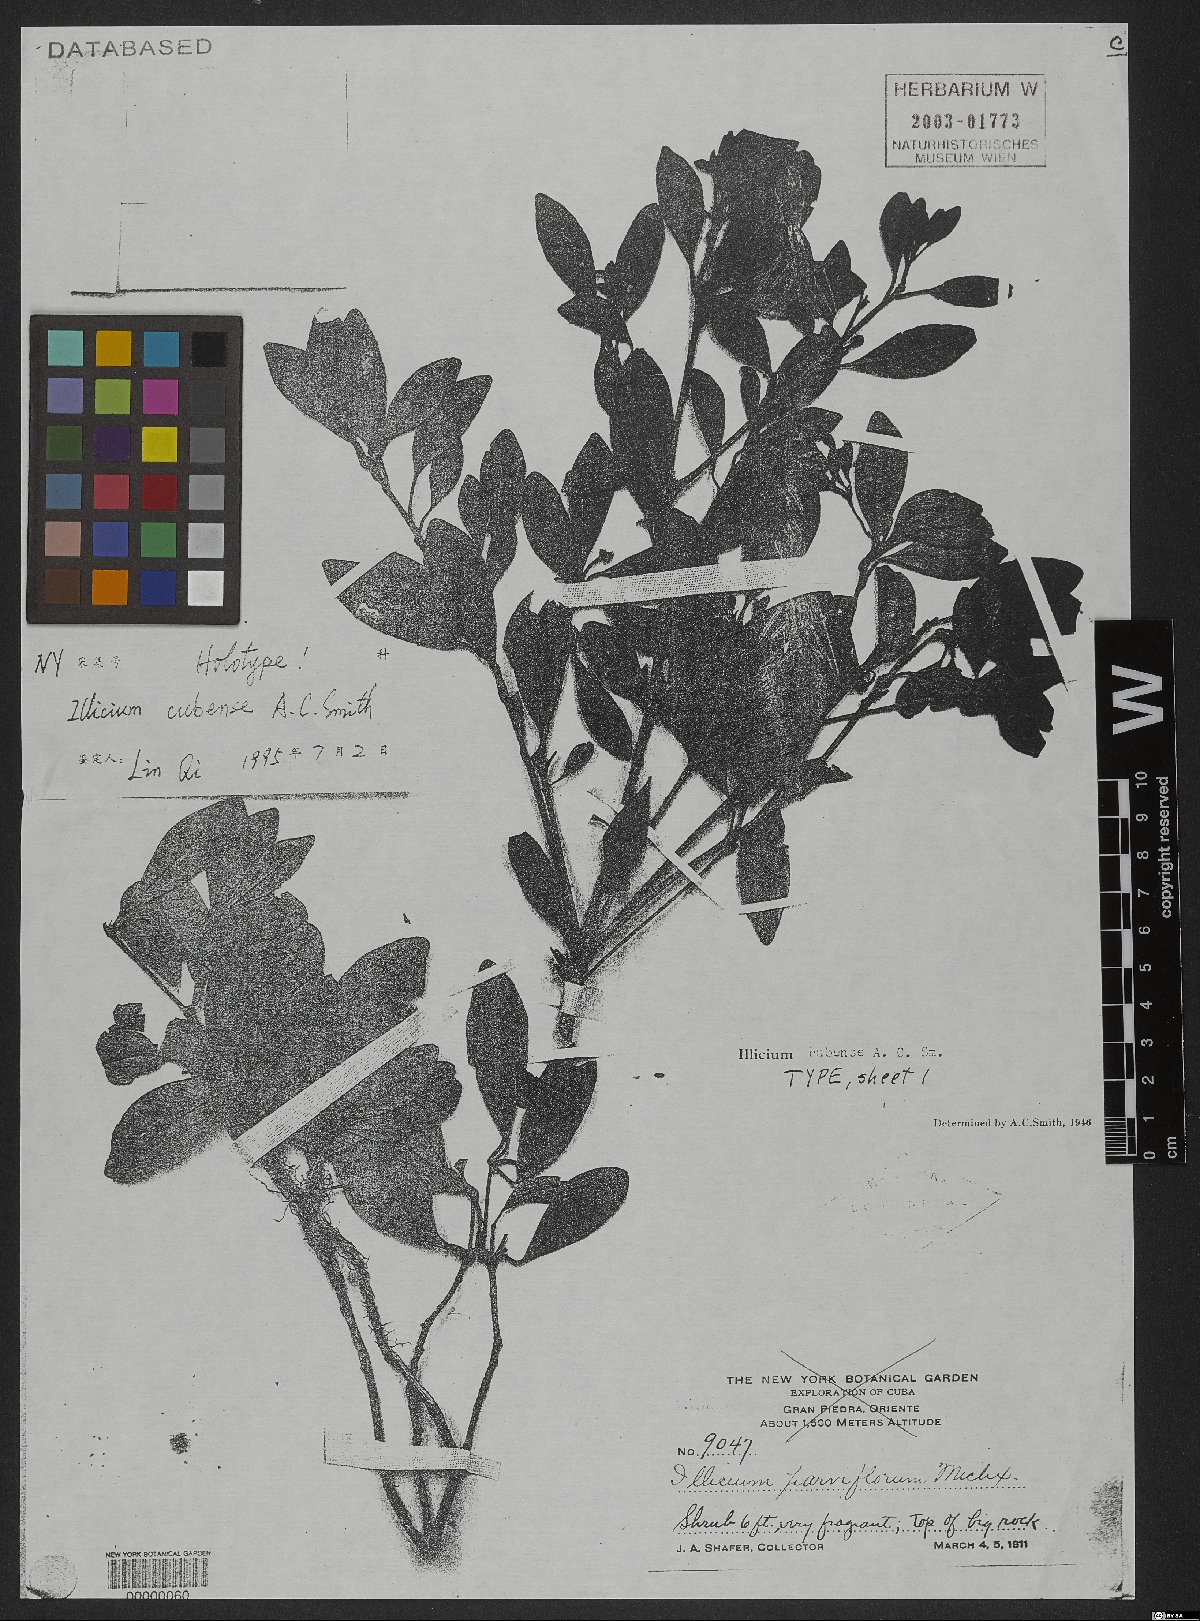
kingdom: Plantae
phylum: Tracheophyta
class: Magnoliopsida
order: Austrobaileyales
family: Schisandraceae
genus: Illicium
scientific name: Illicium cubense
